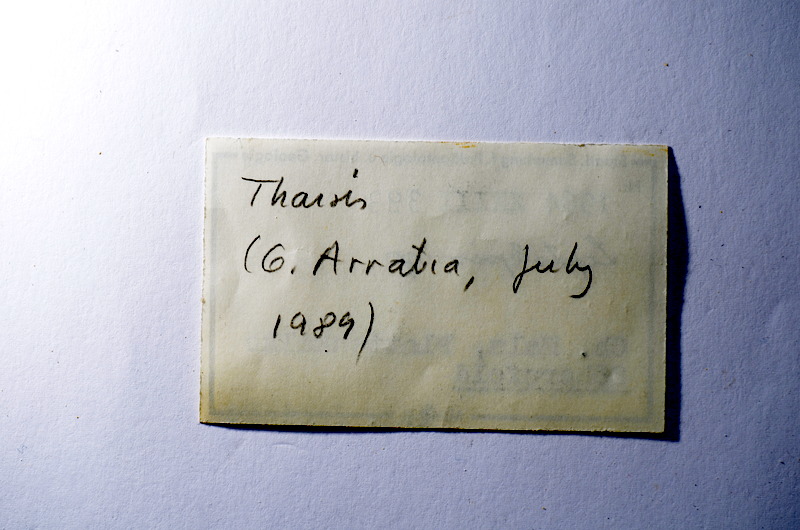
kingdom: Animalia
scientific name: Animalia
